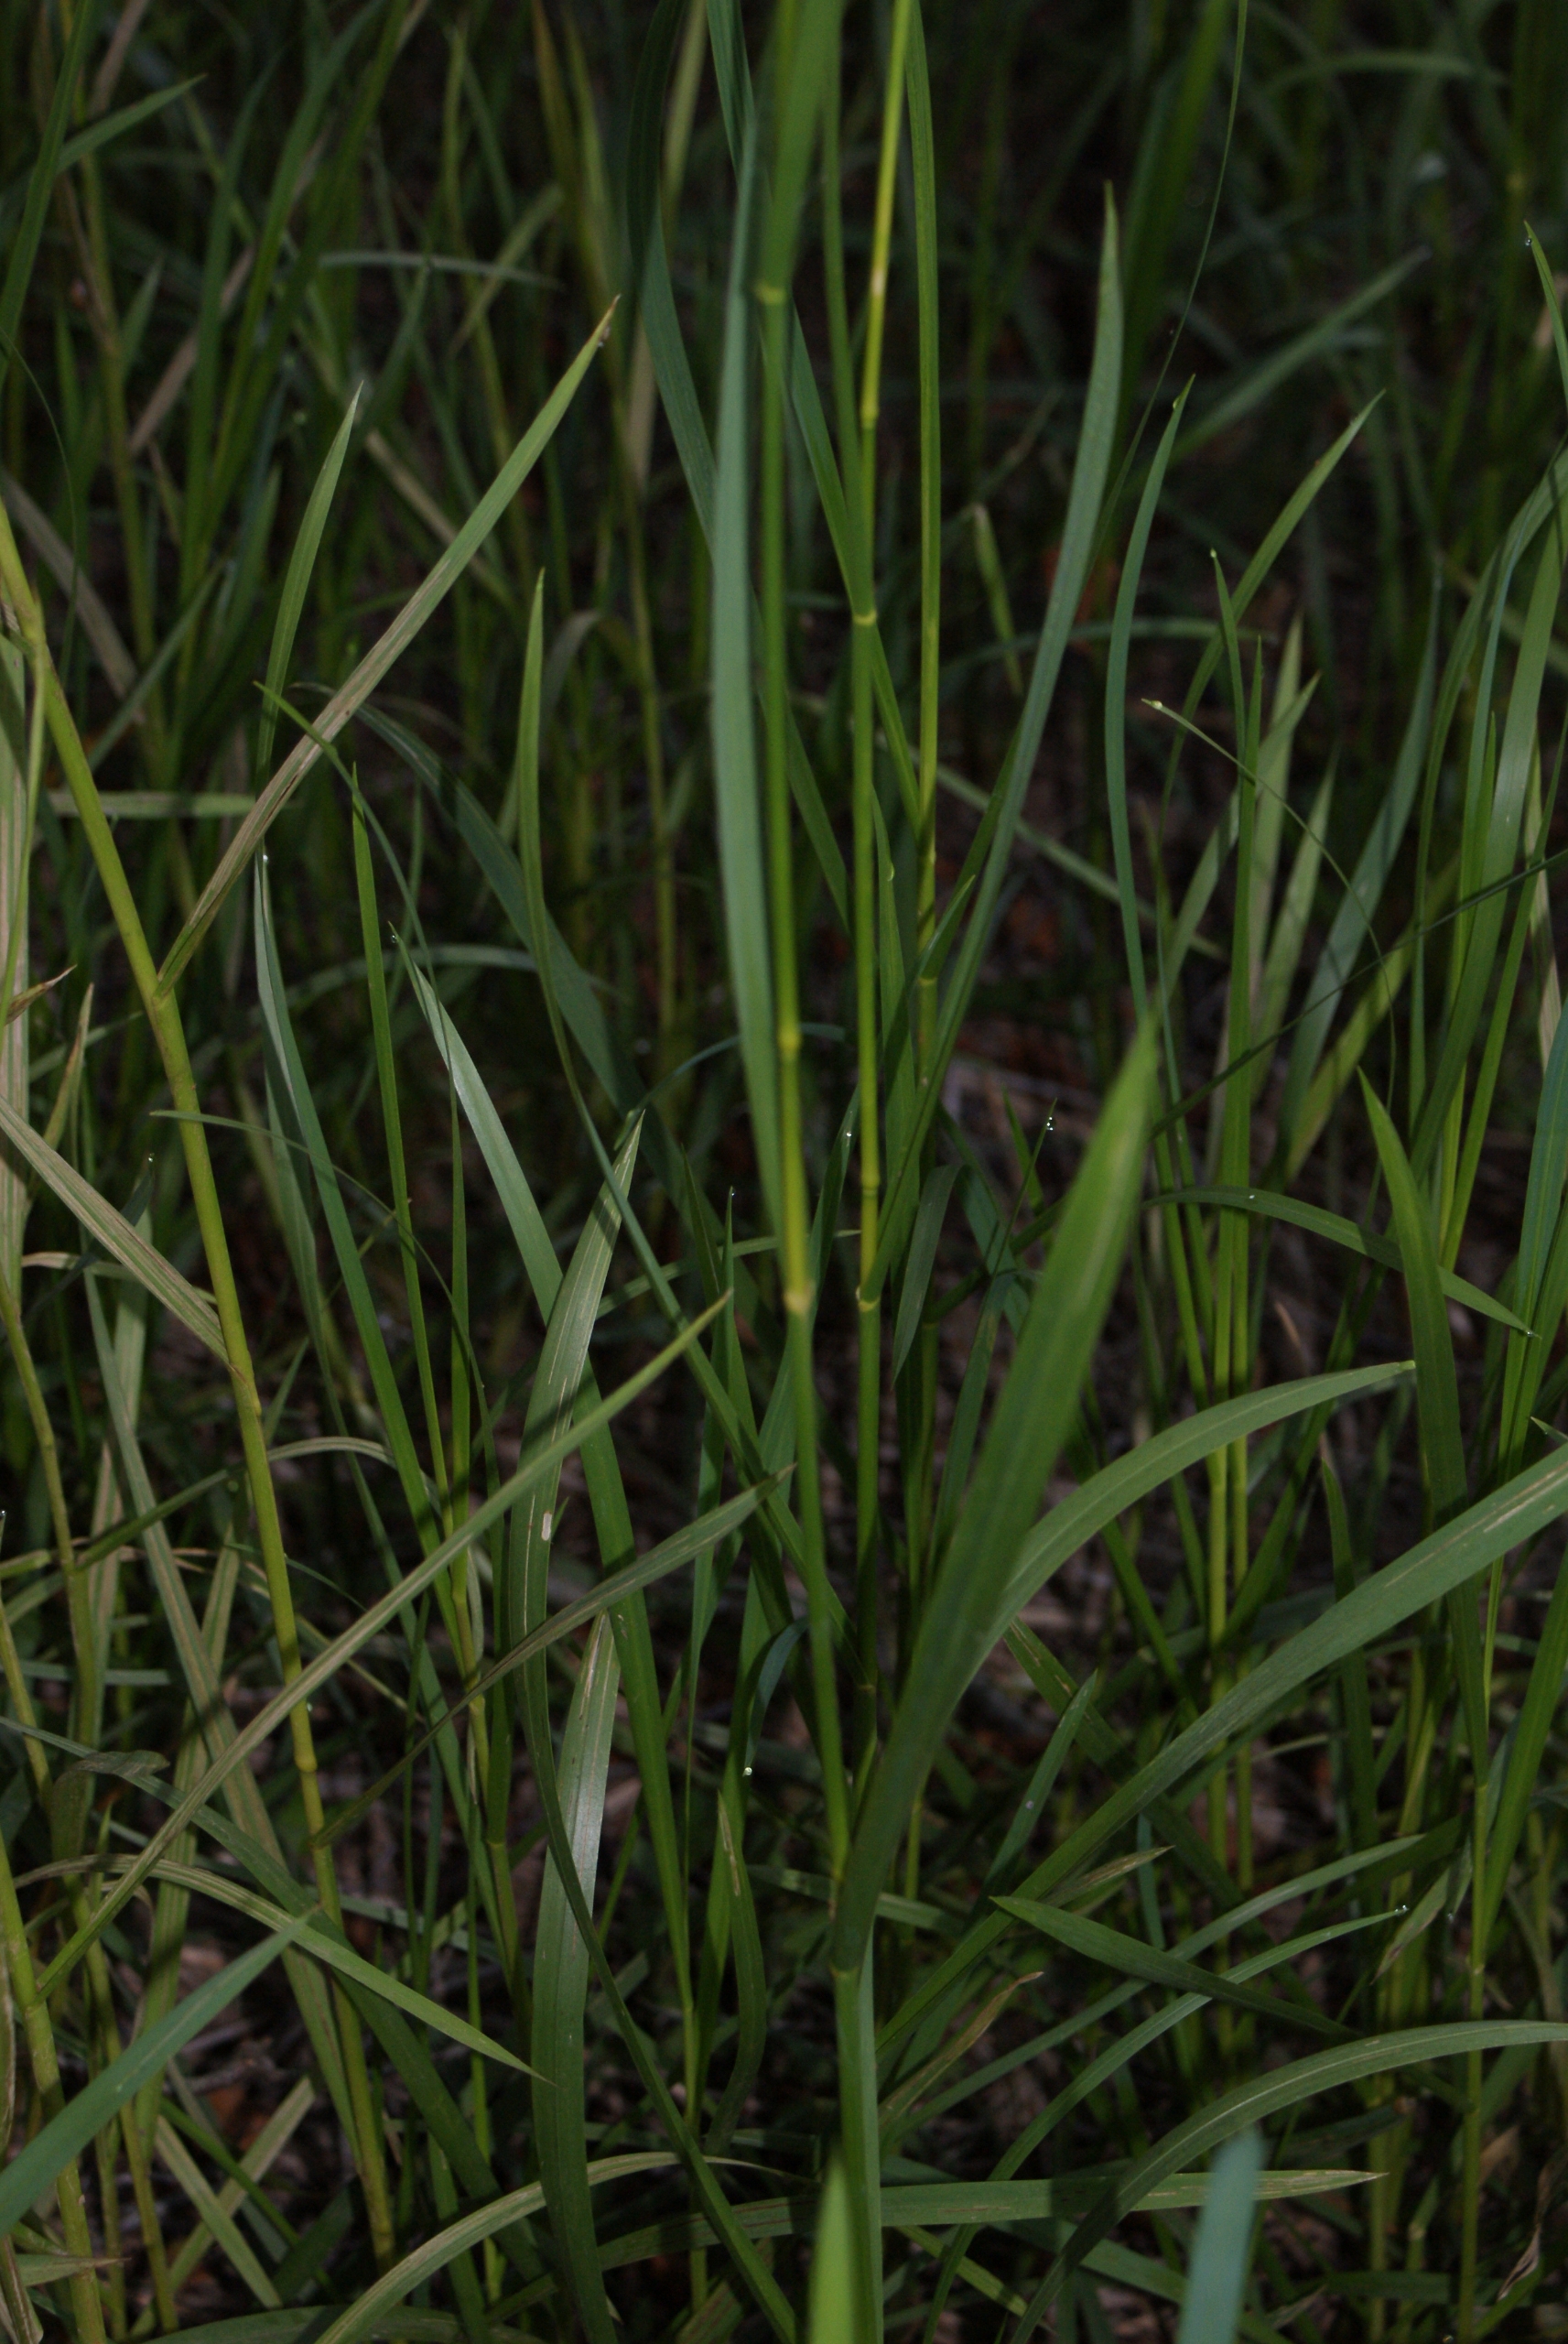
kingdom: Plantae
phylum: Tracheophyta
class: Liliopsida
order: Poales
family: Poaceae
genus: Glyceria
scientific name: Glyceria maxima
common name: Høj sødgræs
